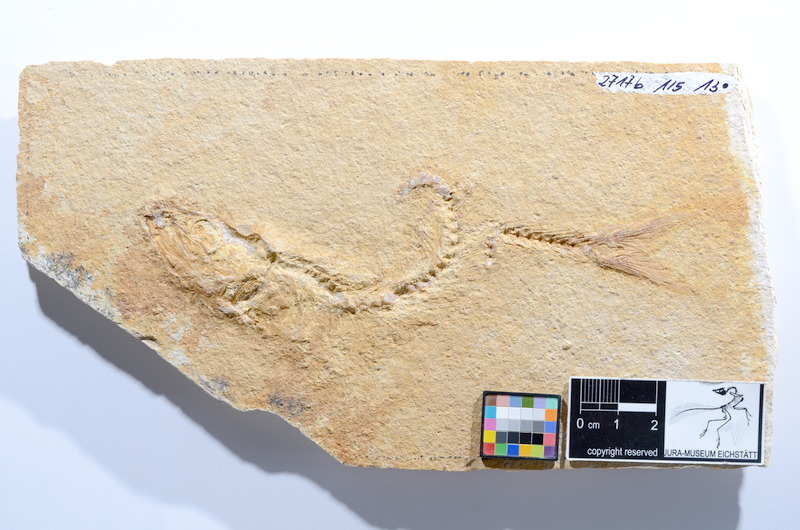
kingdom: Animalia
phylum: Chordata
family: Ascalaboidae
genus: Tharsis
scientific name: Tharsis dubius
